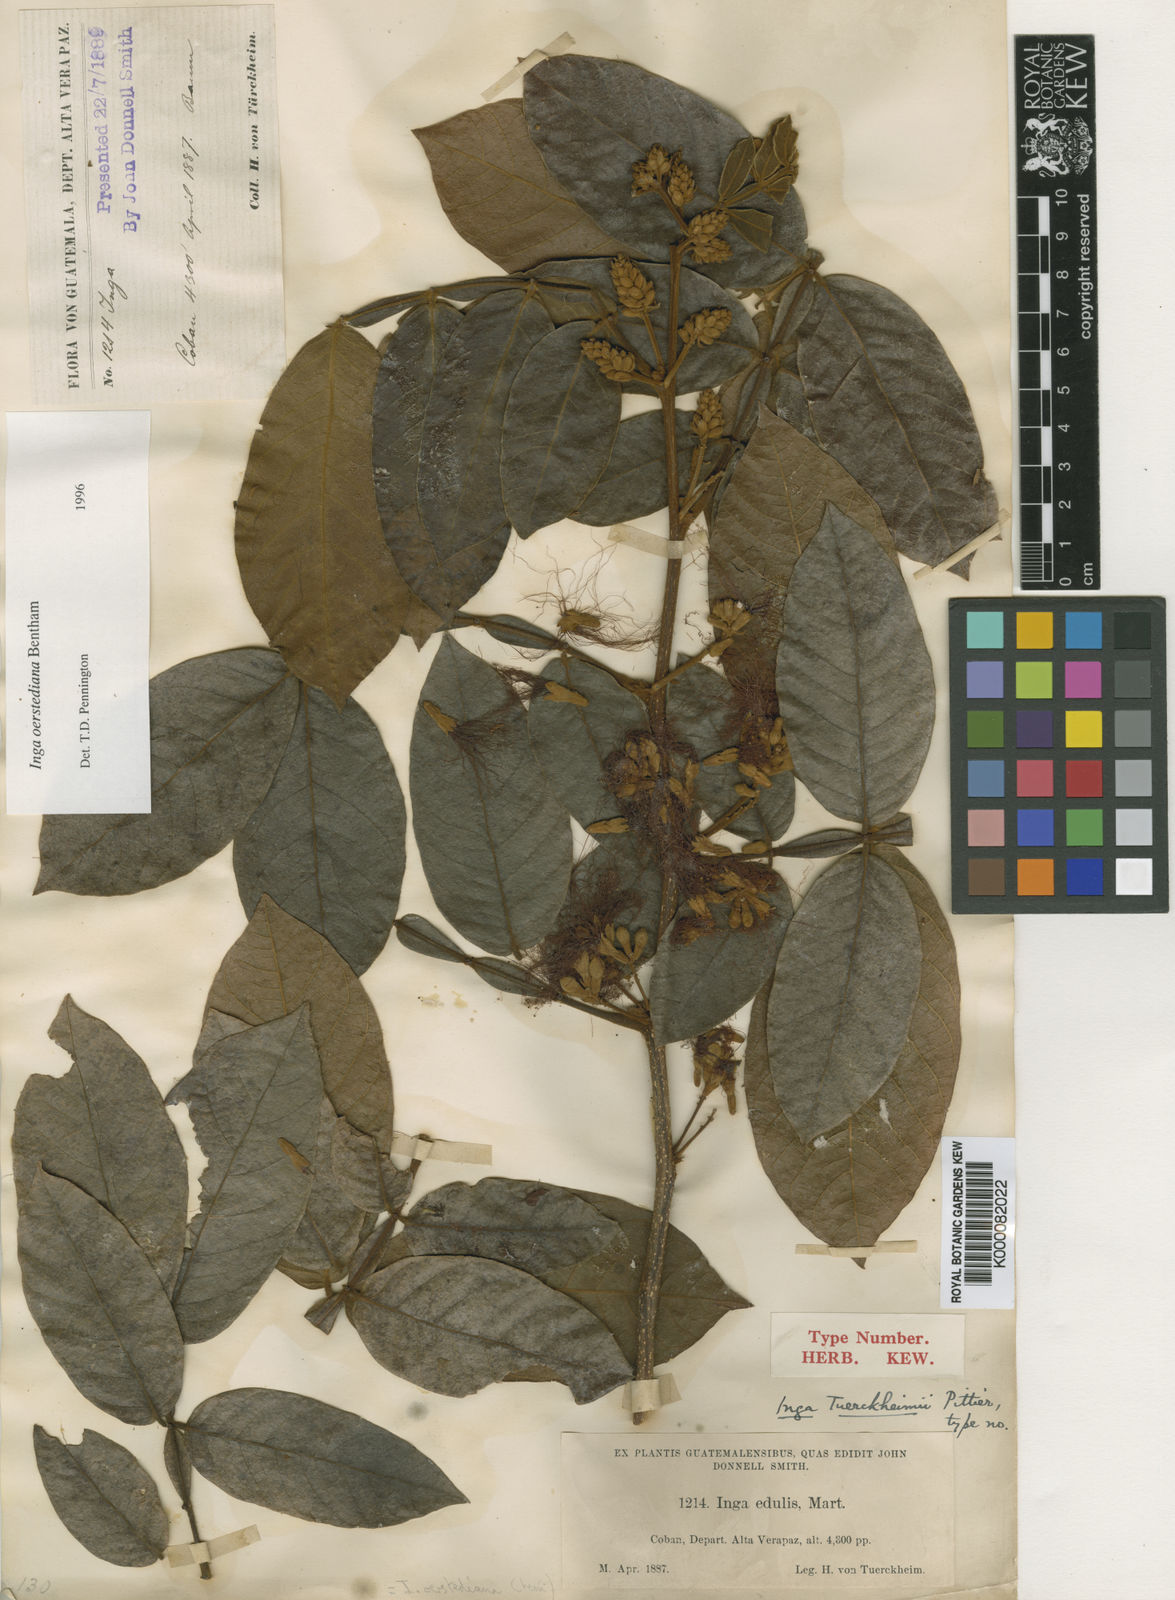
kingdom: Plantae
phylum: Tracheophyta
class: Magnoliopsida
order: Fabales
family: Fabaceae
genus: Inga
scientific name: Inga oerstediana
